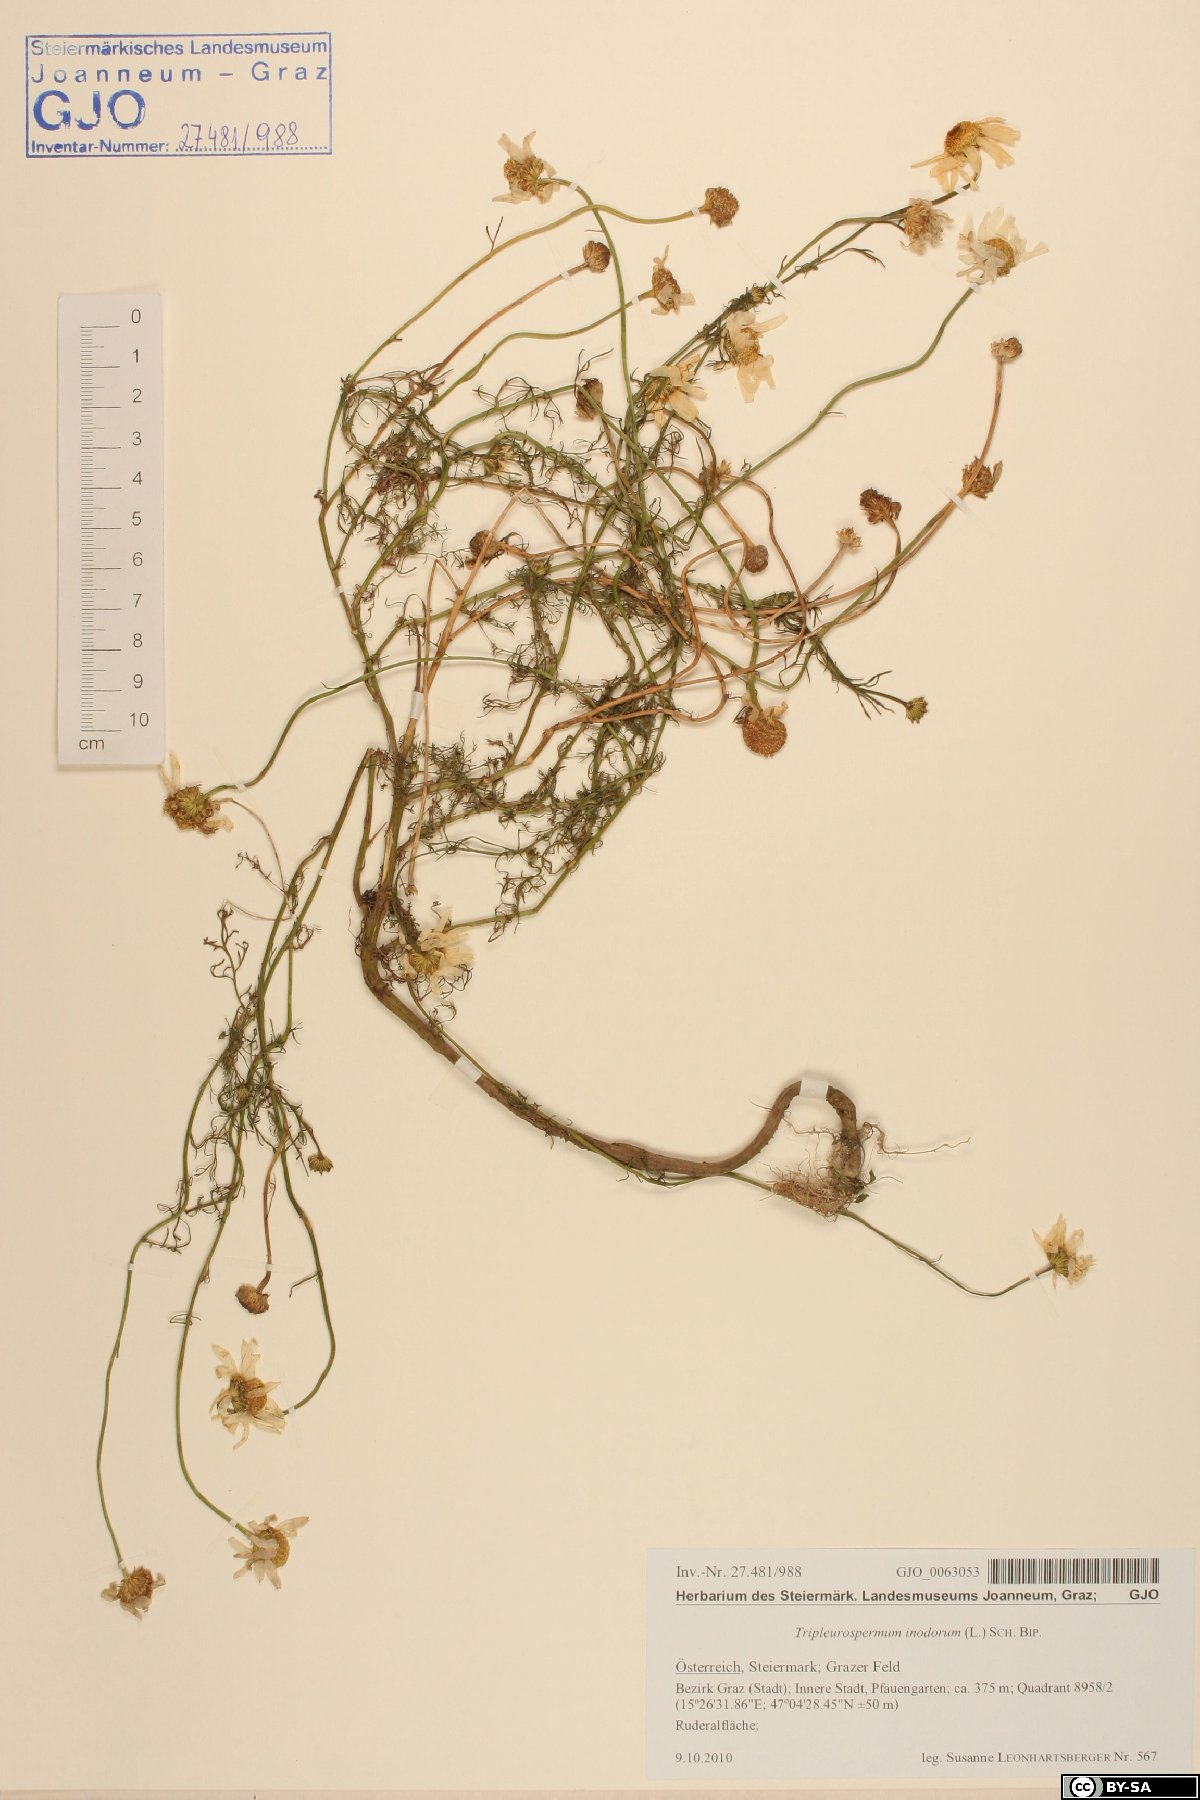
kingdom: Plantae
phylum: Tracheophyta
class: Magnoliopsida
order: Asterales
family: Asteraceae
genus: Tripleurospermum
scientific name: Tripleurospermum inodorum
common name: Scentless mayweed
